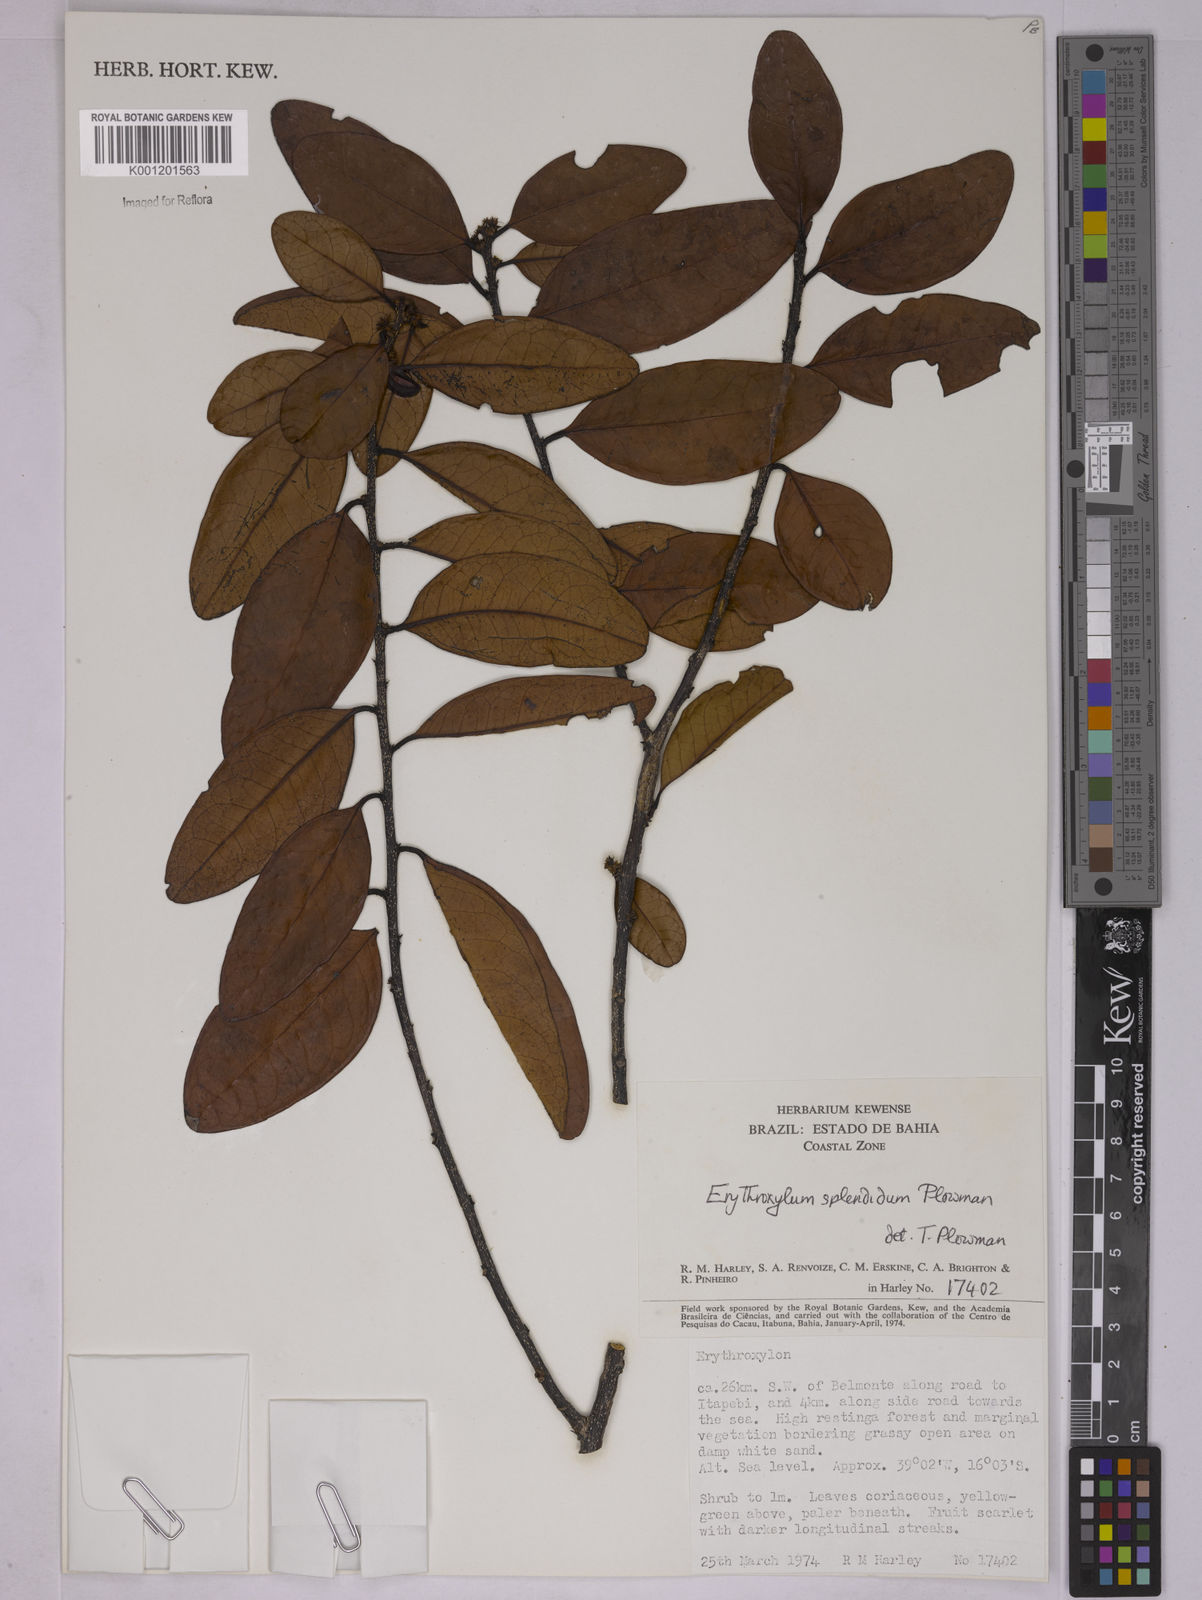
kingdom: Plantae
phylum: Tracheophyta
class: Magnoliopsida
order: Malpighiales
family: Erythroxylaceae
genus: Erythroxylum
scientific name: Erythroxylum splendidum
